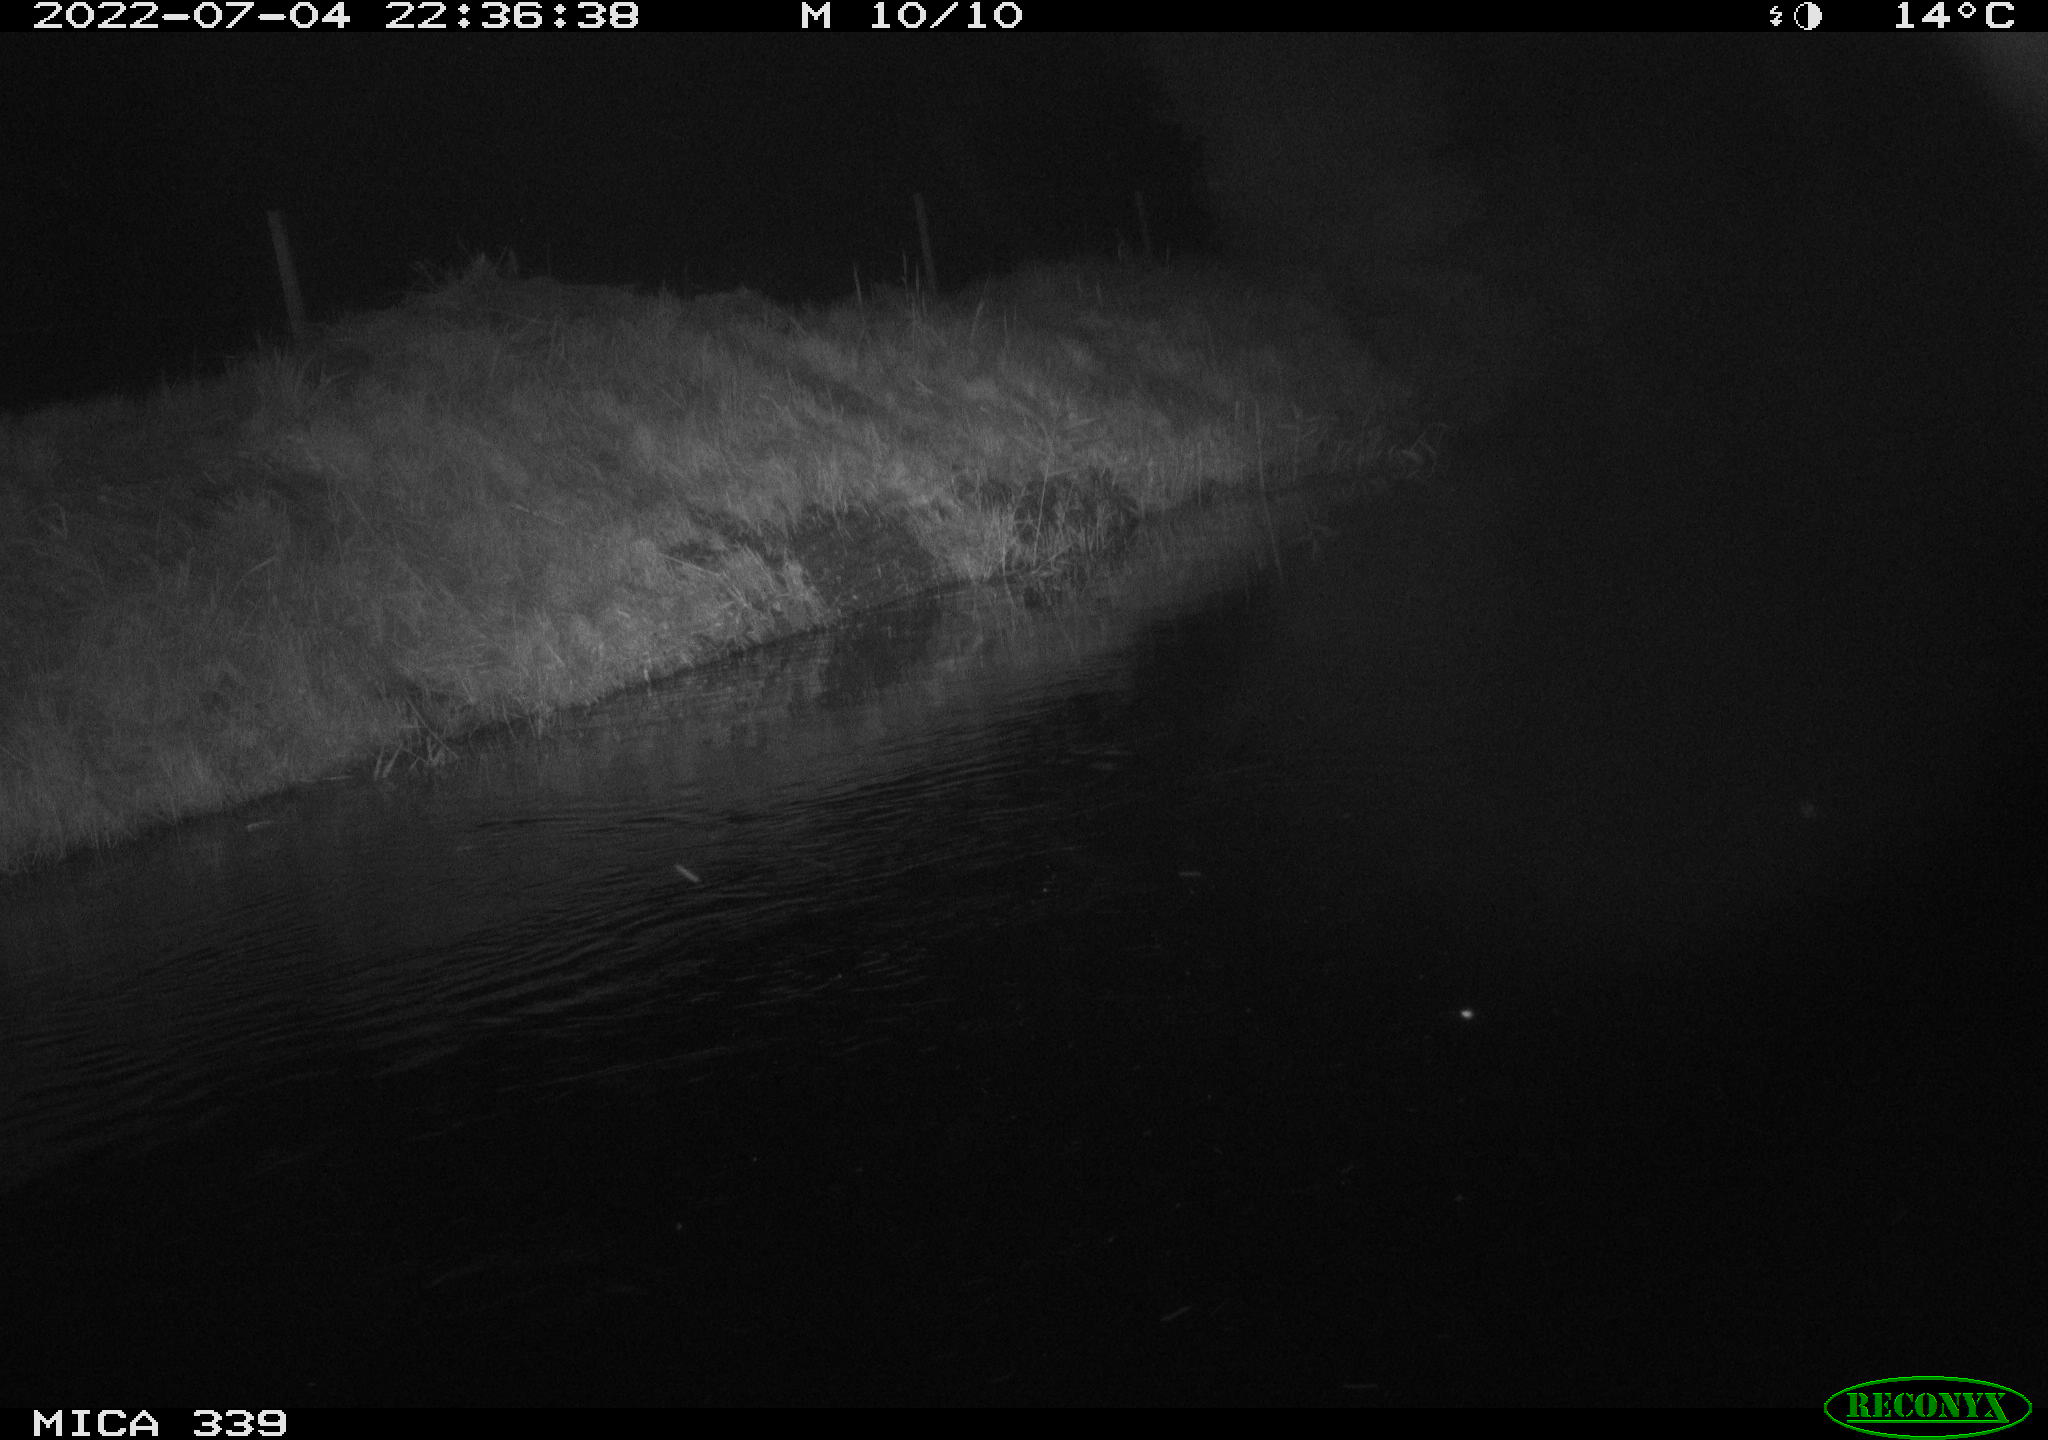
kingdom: Animalia
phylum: Chordata
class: Aves
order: Pelecaniformes
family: Ardeidae
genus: Ardea
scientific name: Ardea cinerea
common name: Grey heron
